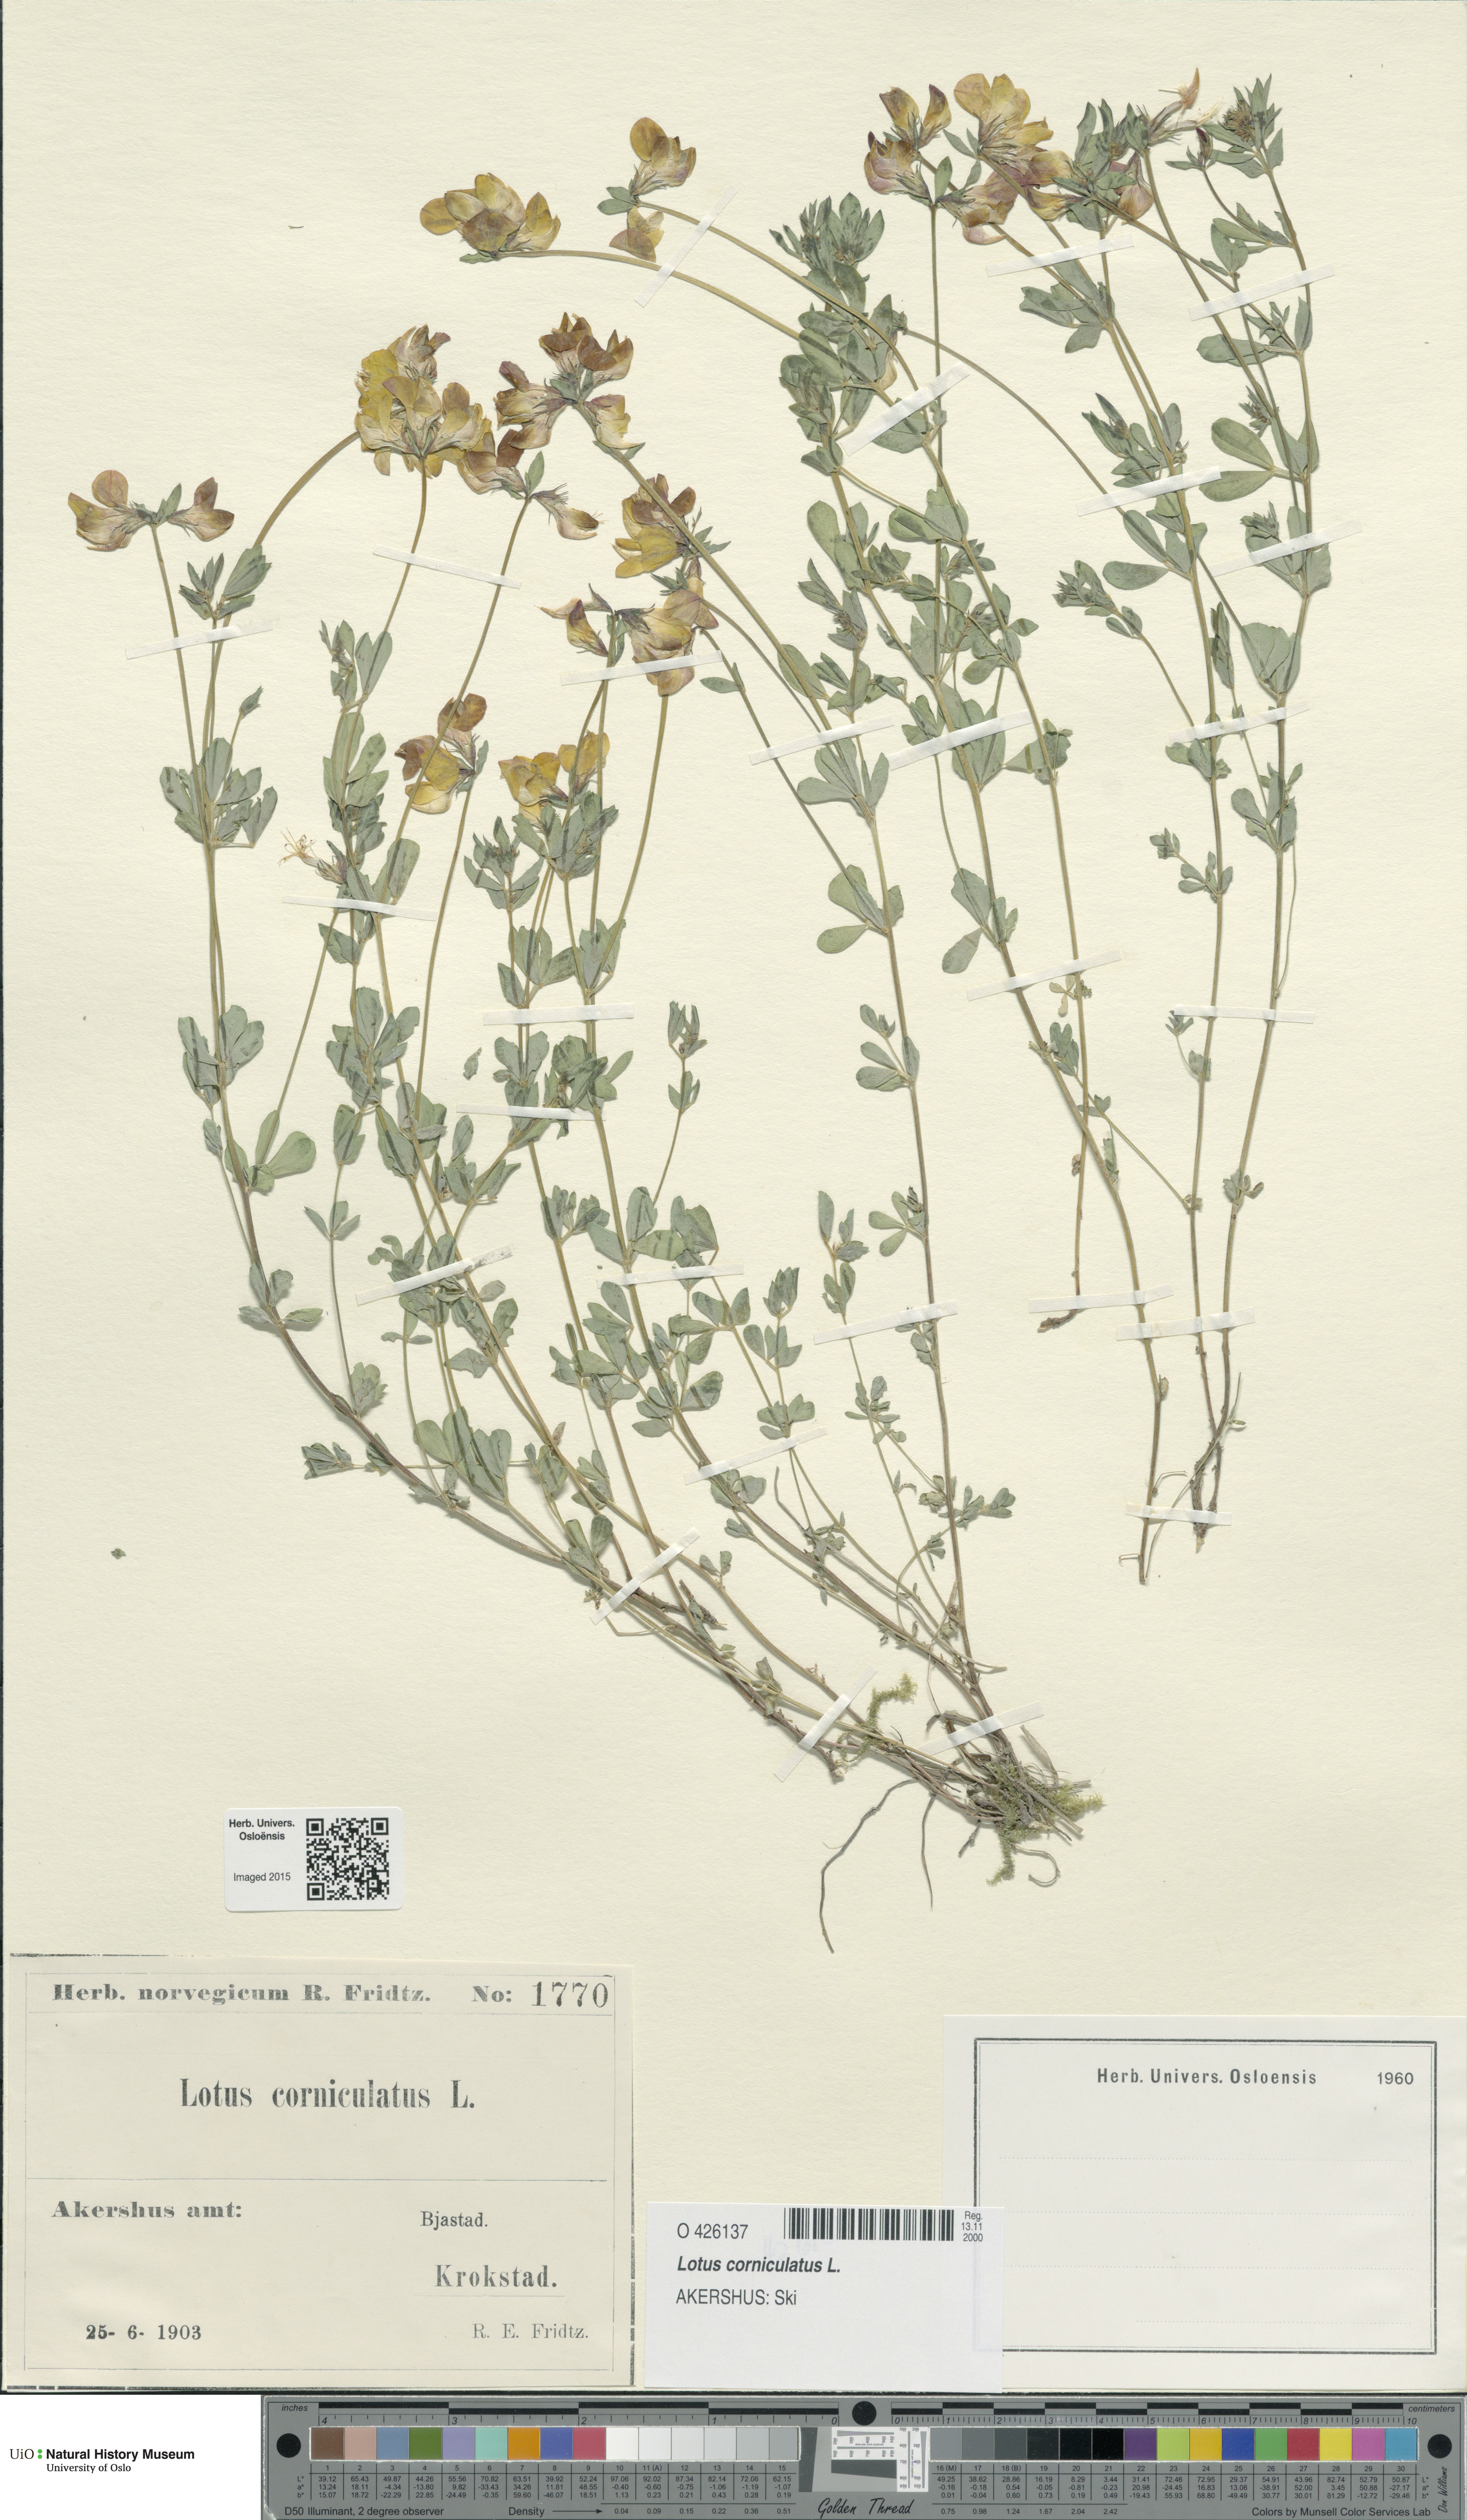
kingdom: Plantae
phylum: Tracheophyta
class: Magnoliopsida
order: Fabales
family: Fabaceae
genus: Lotus
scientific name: Lotus corniculatus
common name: Common bird's-foot-trefoil
